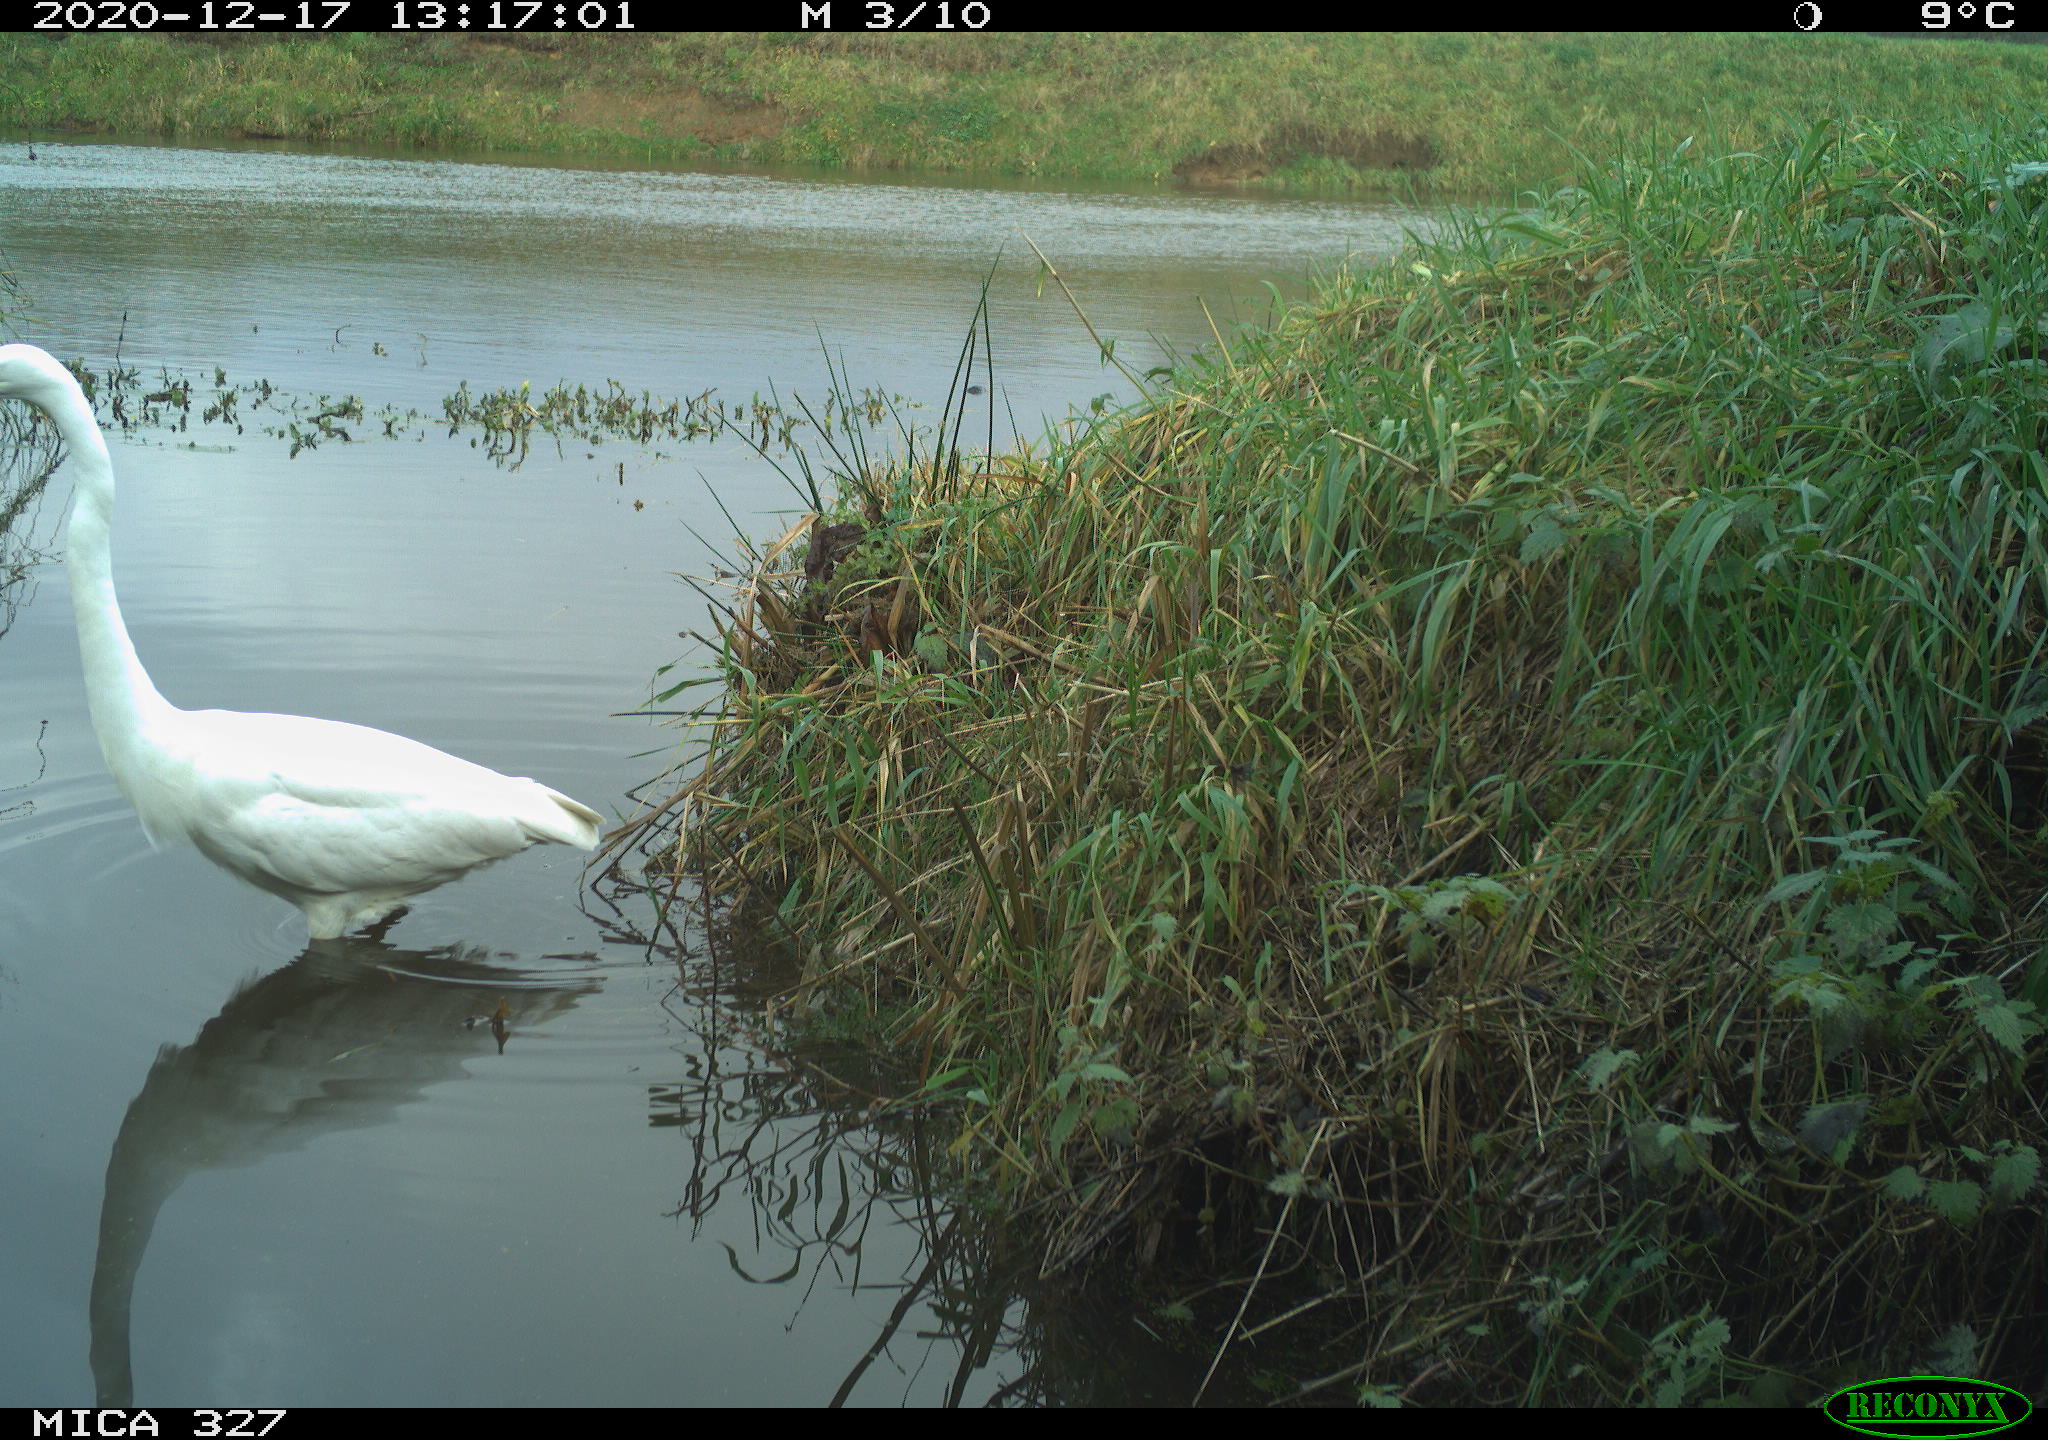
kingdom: Animalia
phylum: Chordata
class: Aves
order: Pelecaniformes
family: Ardeidae
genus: Ardea
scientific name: Ardea alba
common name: Great egret
